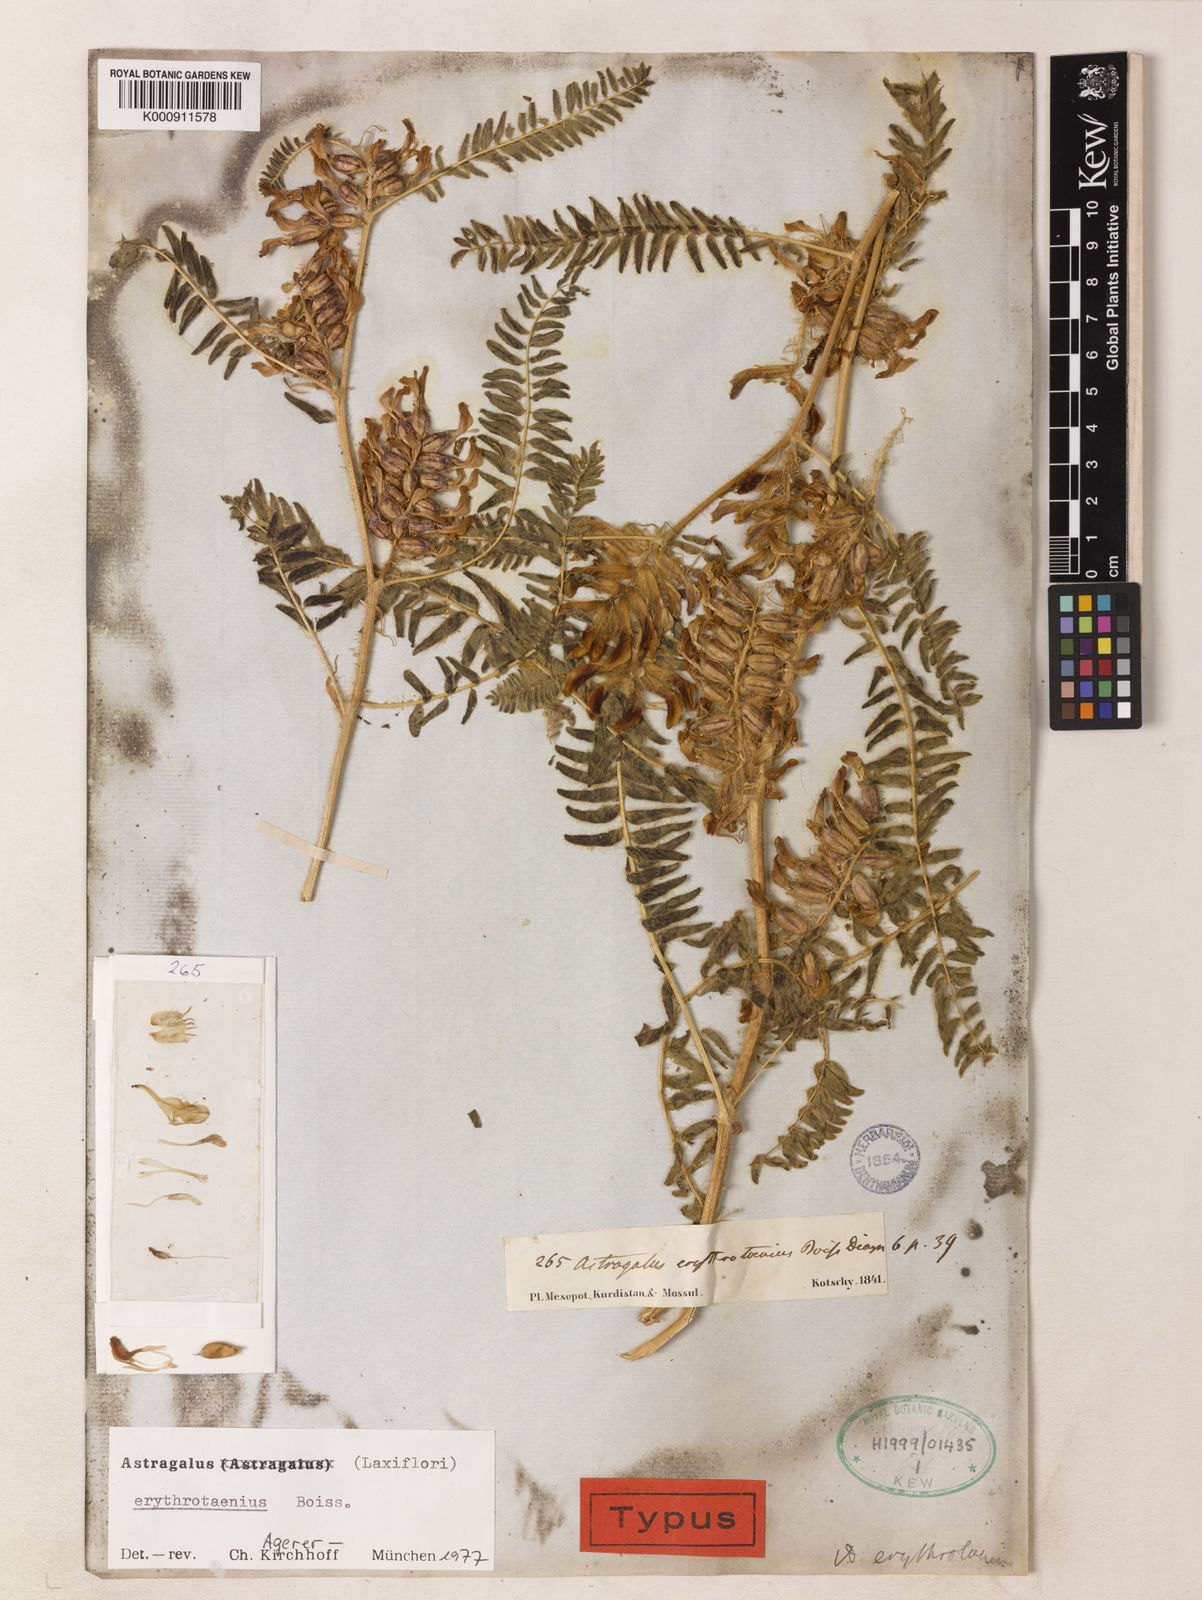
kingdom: Plantae
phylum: Tracheophyta
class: Magnoliopsida
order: Fabales
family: Fabaceae
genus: Astragalus
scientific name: Astragalus erythrotaenius
